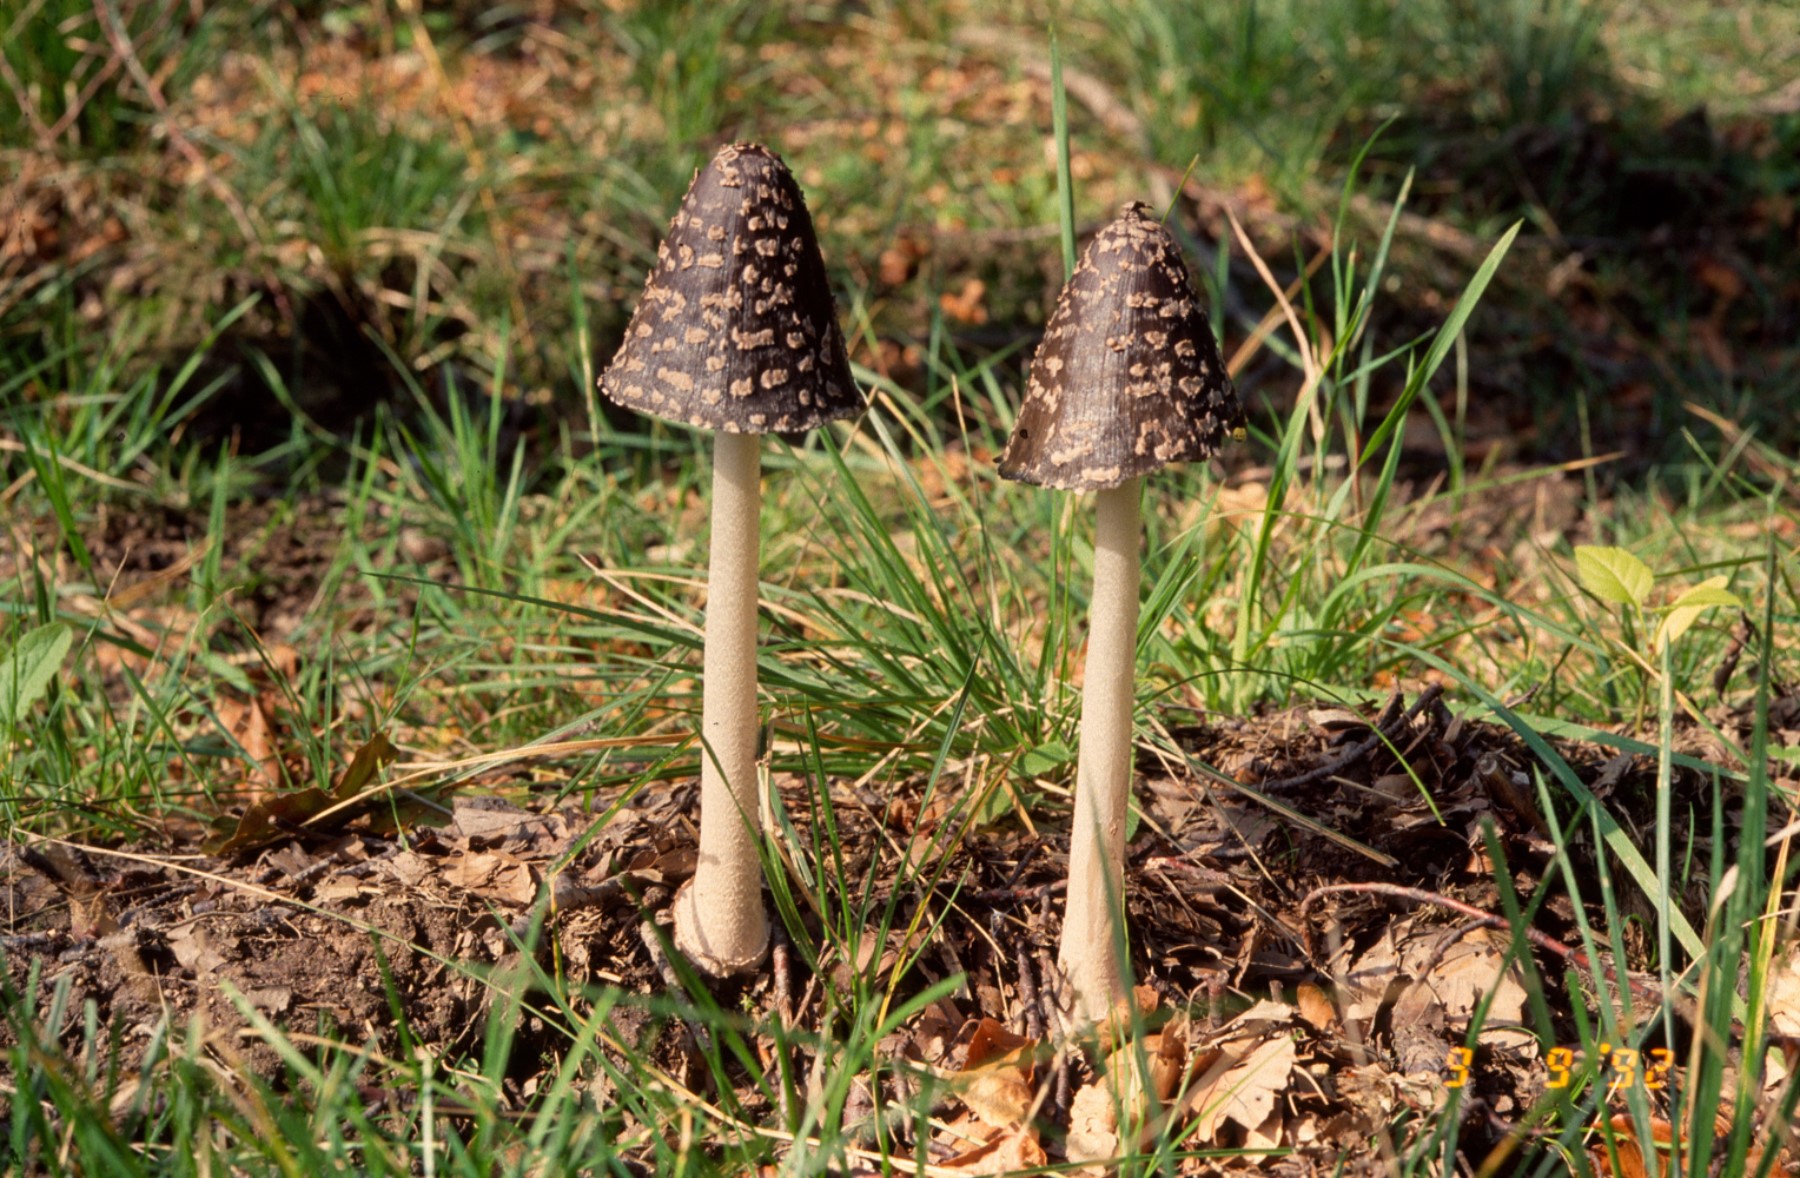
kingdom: Fungi
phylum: Basidiomycota
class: Agaricomycetes
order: Agaricales
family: Psathyrellaceae
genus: Coprinopsis
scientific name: Coprinopsis picacea
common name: skade-blækhat
